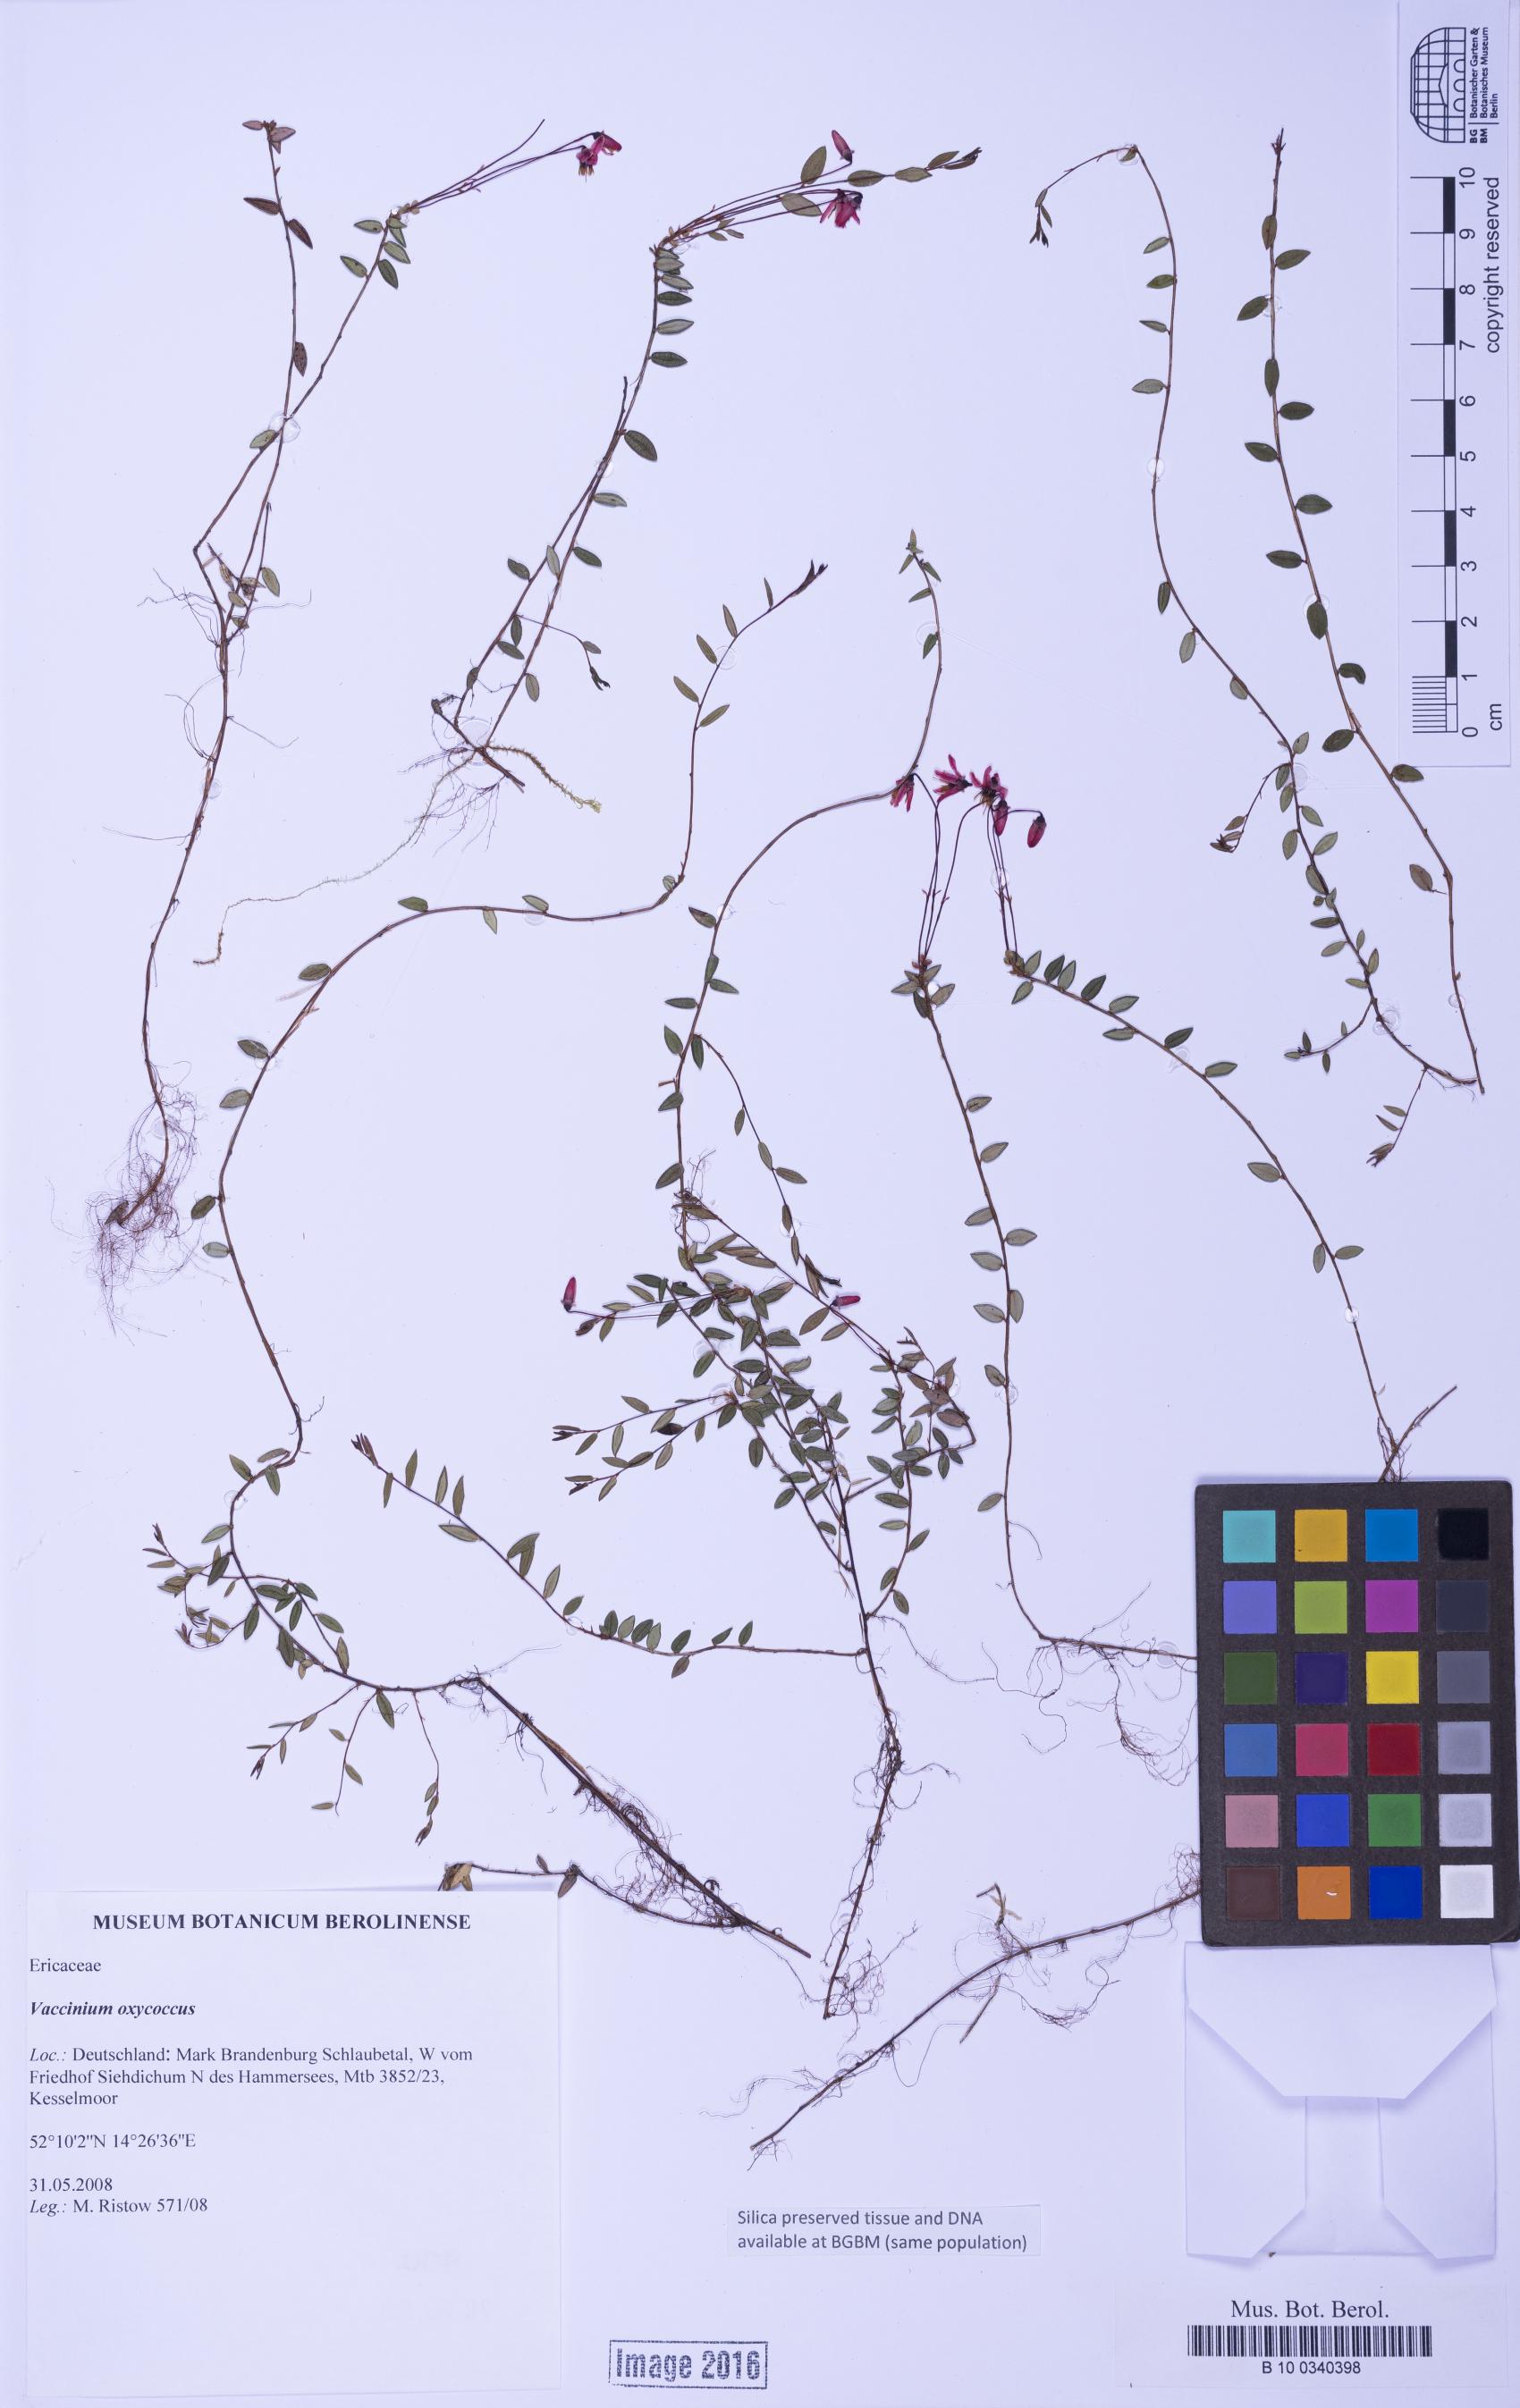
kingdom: Plantae
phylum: Tracheophyta
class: Magnoliopsida
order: Ericales
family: Ericaceae
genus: Vaccinium
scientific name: Vaccinium oxycoccos
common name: Cranberry
